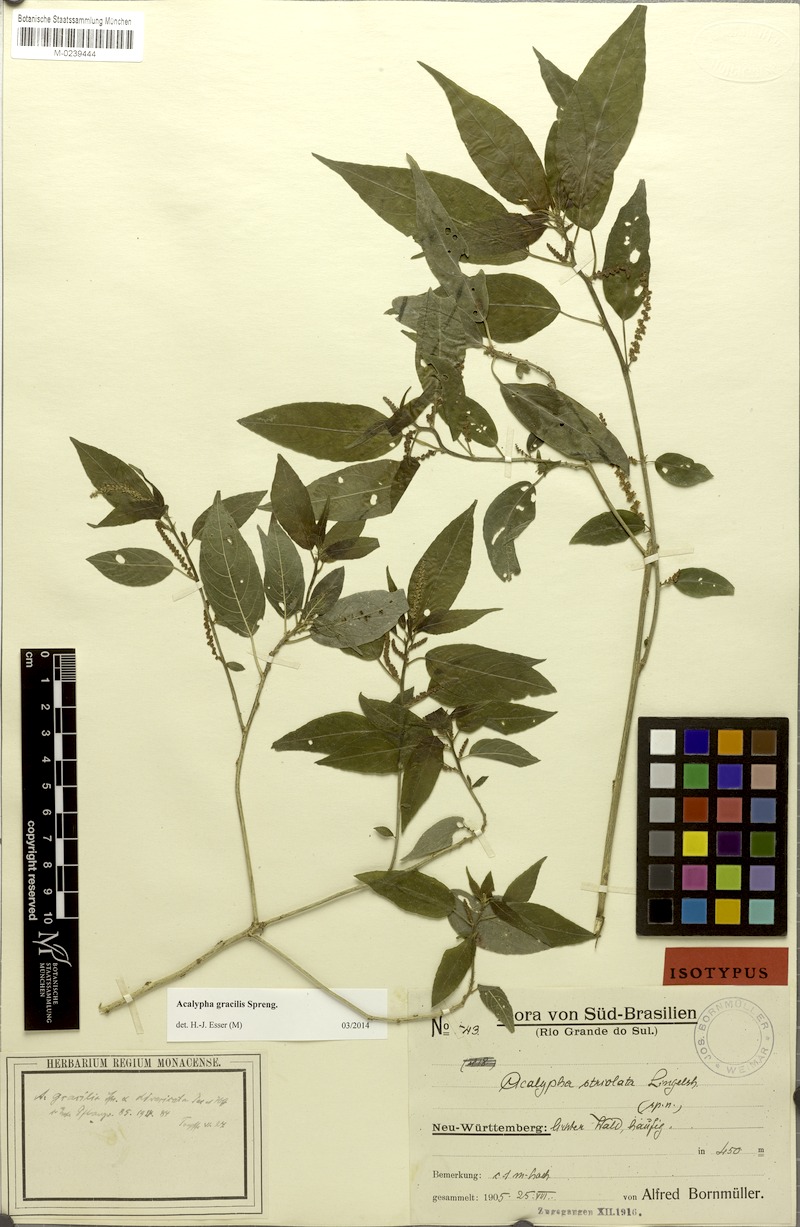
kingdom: Plantae
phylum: Tracheophyta
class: Magnoliopsida
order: Malpighiales
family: Euphorbiaceae
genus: Acalypha
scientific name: Acalypha gracilis
